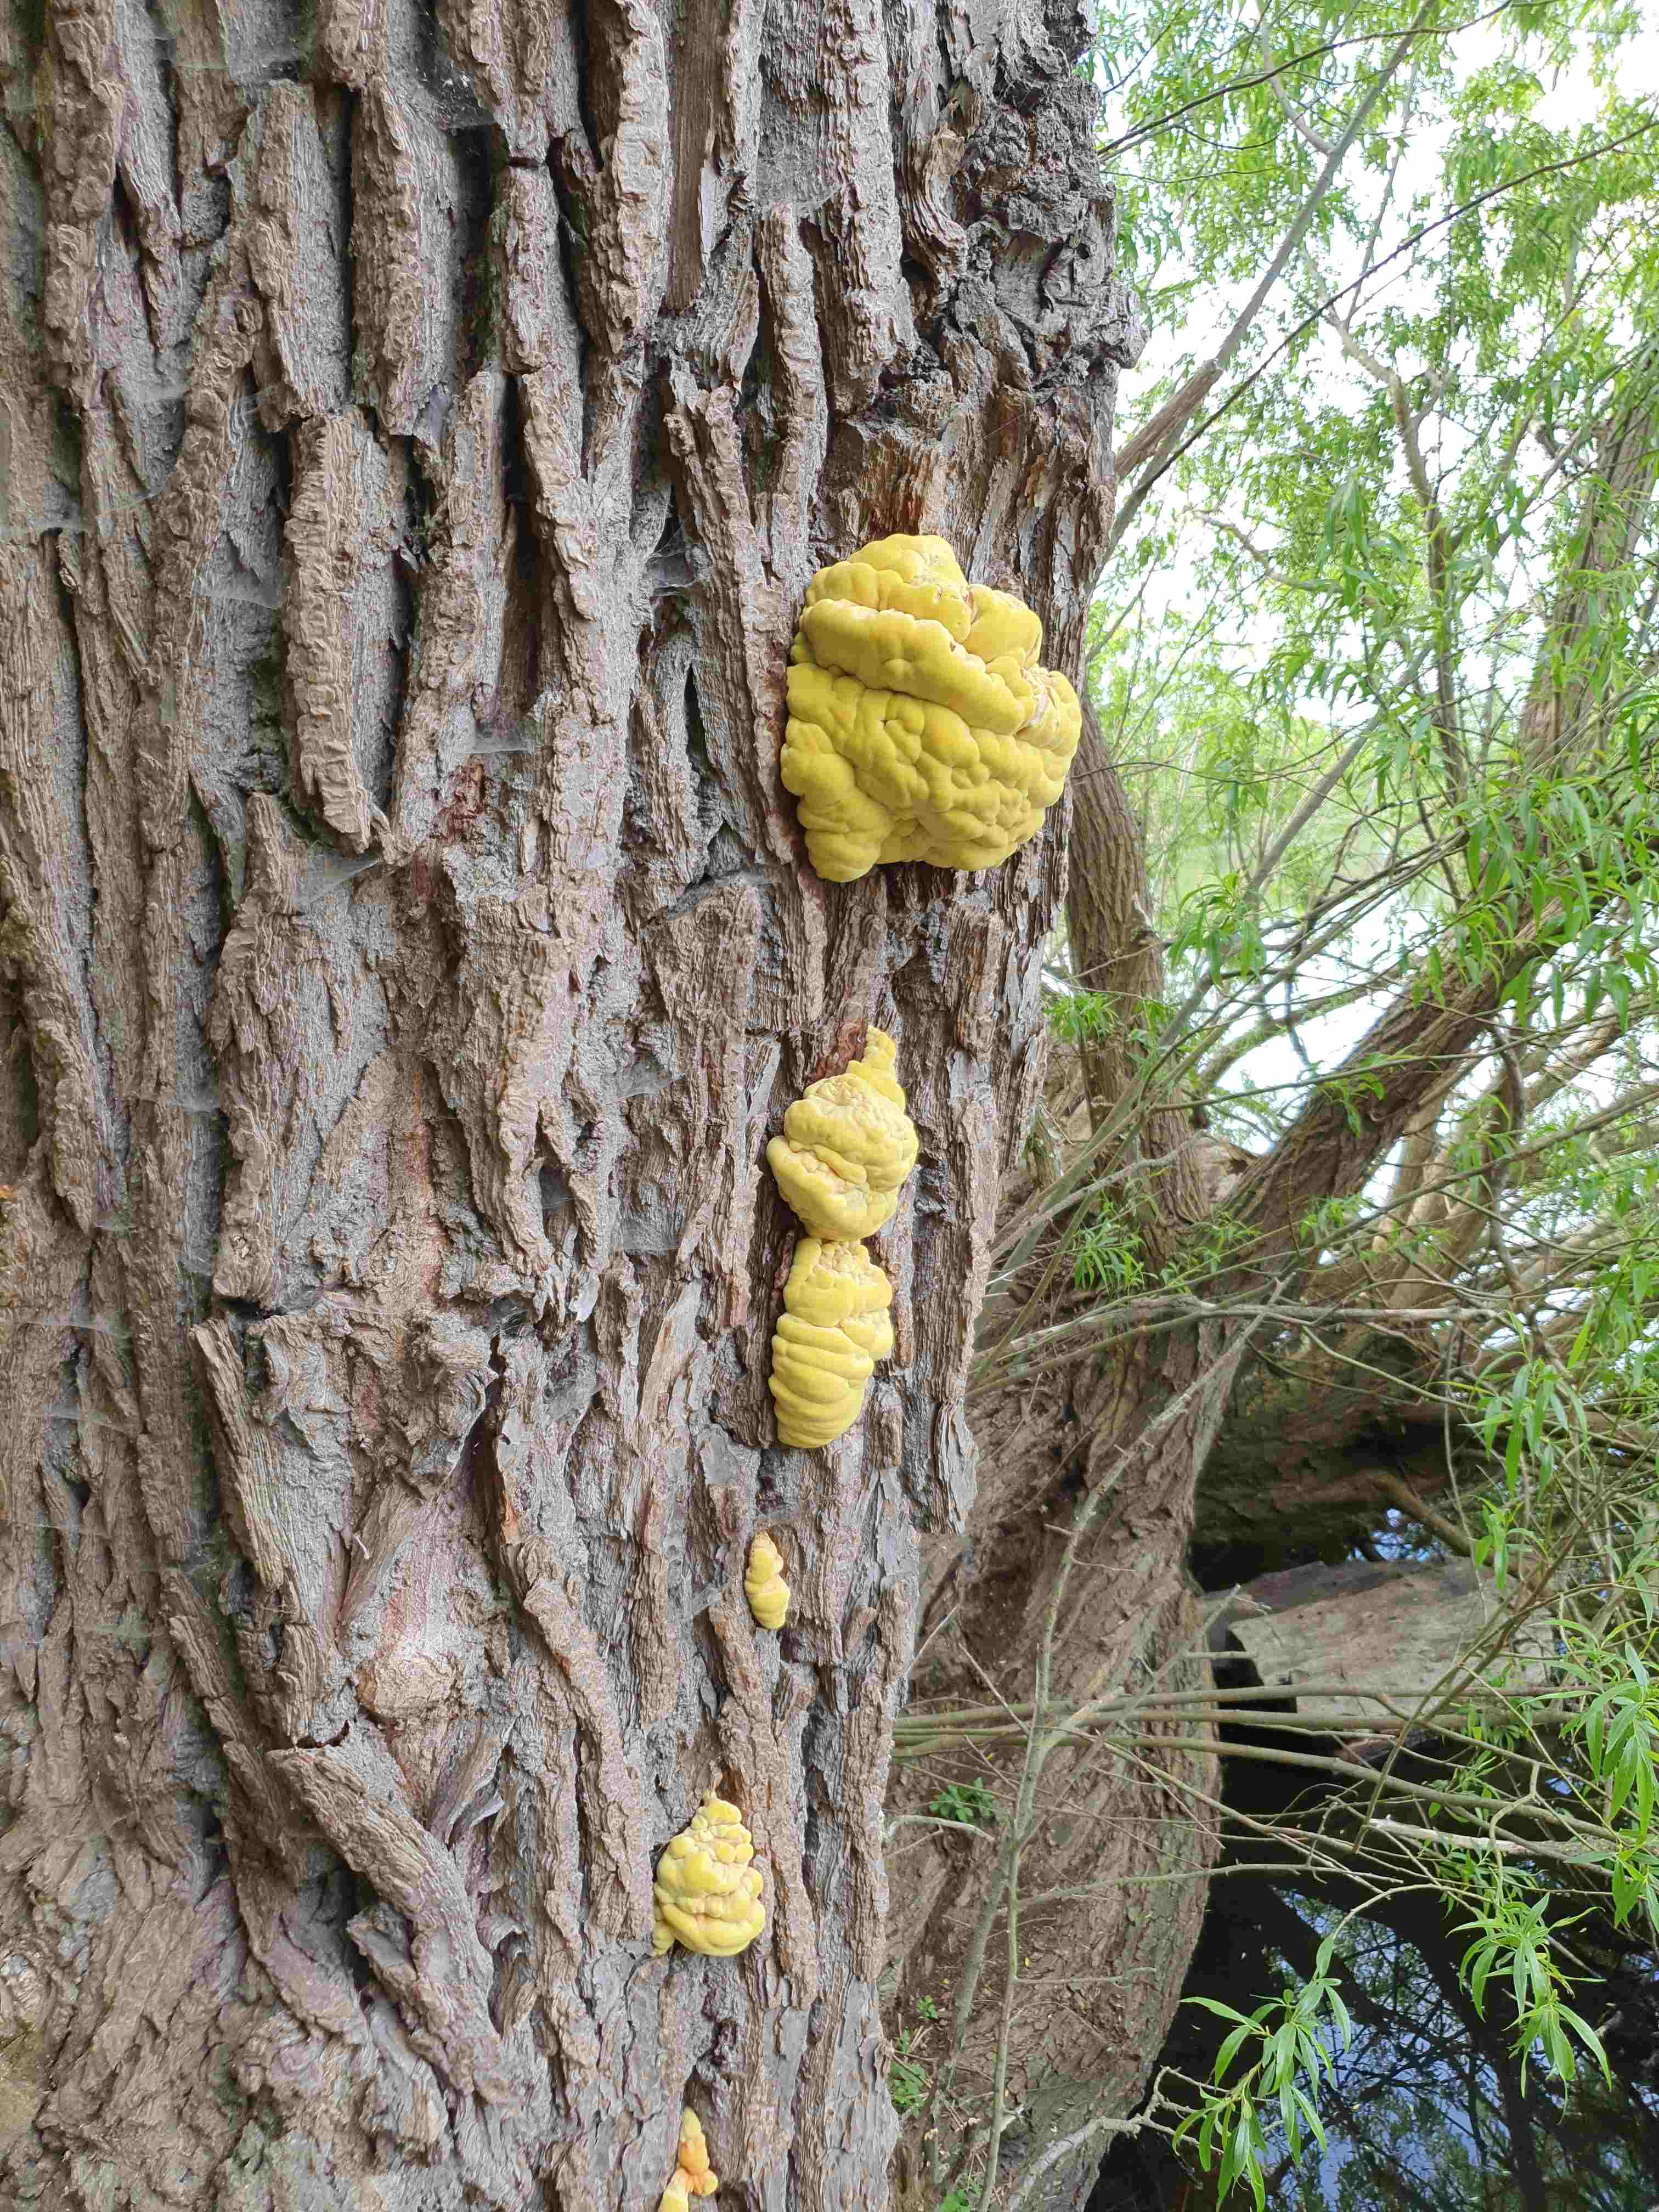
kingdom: Fungi
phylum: Basidiomycota
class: Agaricomycetes
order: Polyporales
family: Laetiporaceae
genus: Laetiporus
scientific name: Laetiporus sulphureus
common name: svovlporesvamp
